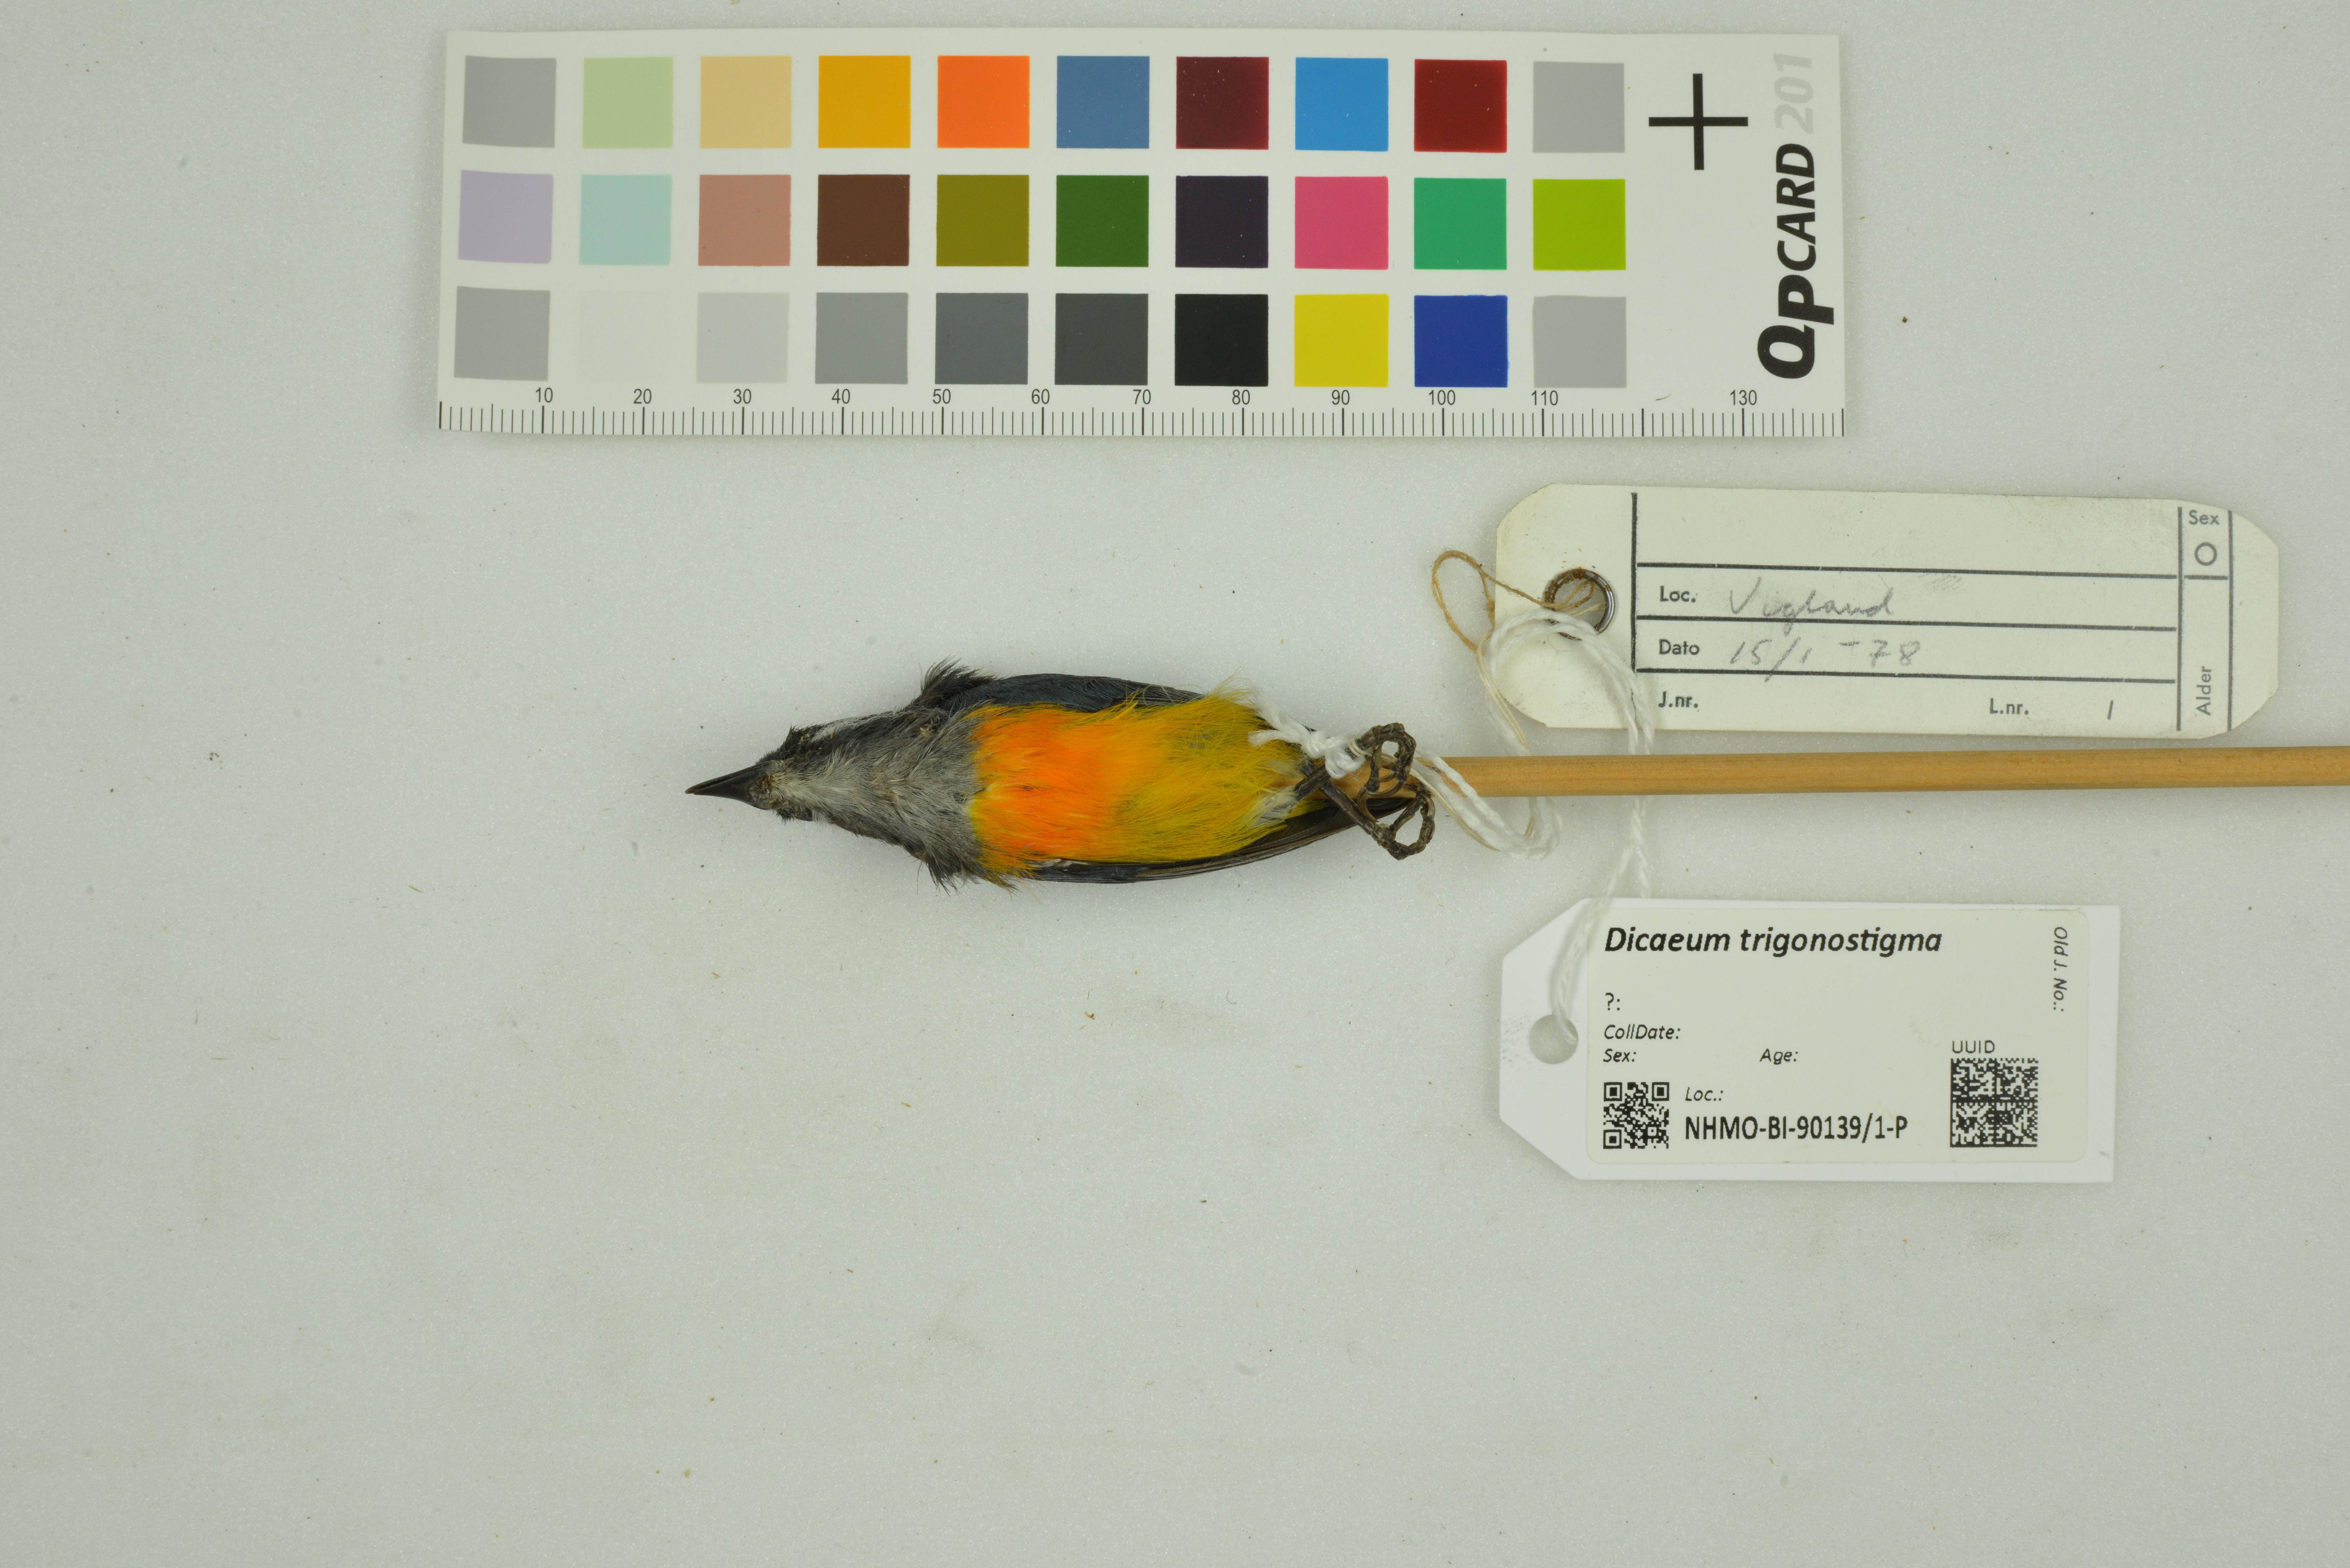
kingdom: Animalia
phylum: Chordata
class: Aves
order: Passeriformes
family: Dicaeidae
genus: Dicaeum
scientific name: Dicaeum trigonostigma
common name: Orange-bellied flowerpecker
